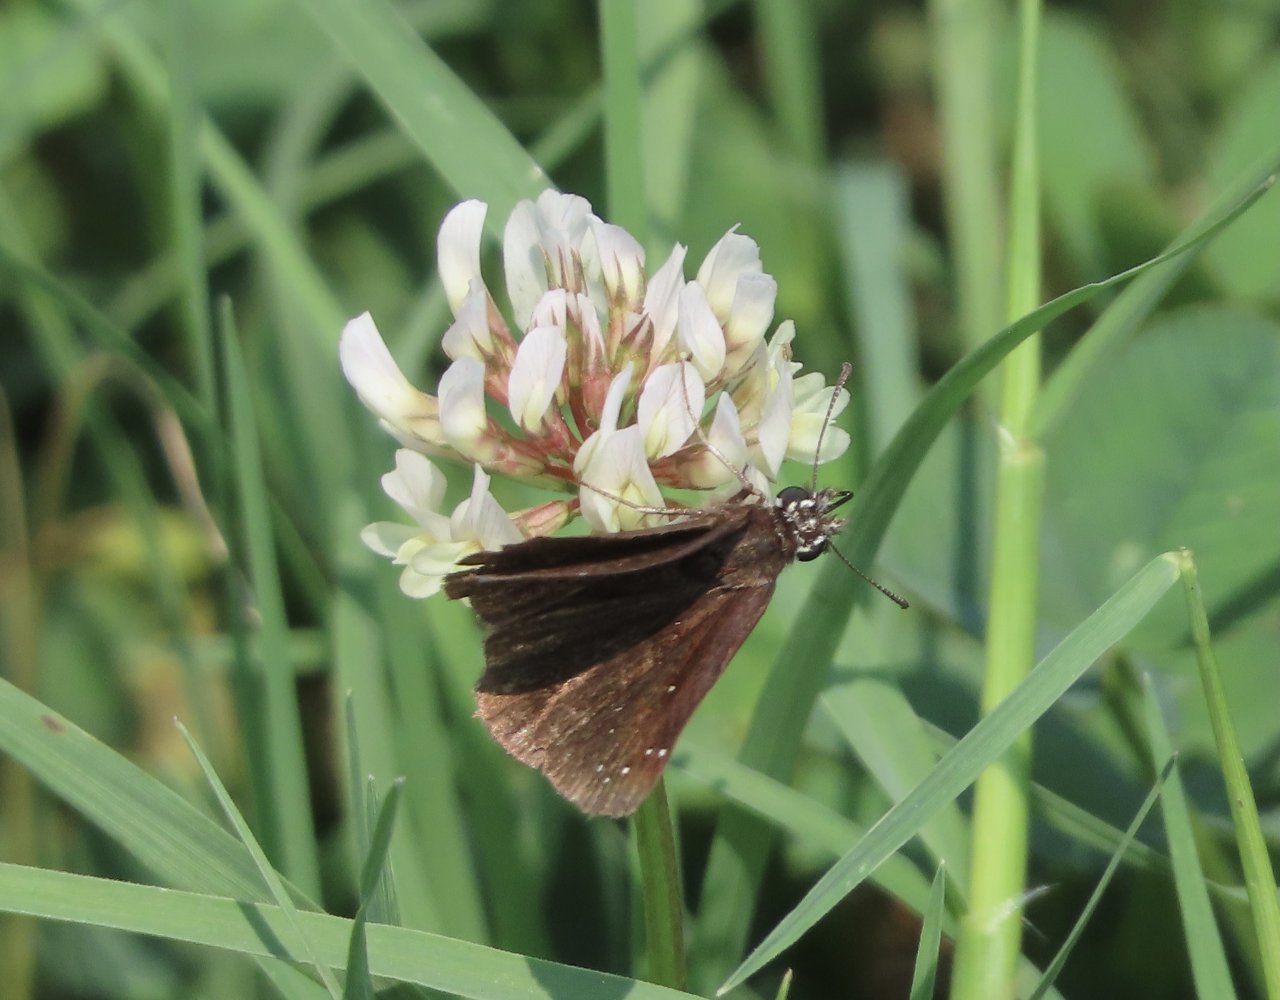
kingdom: Animalia
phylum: Arthropoda
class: Insecta
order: Lepidoptera
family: Hesperiidae
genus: Pholisora
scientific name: Pholisora catullus
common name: Common Sootywing
